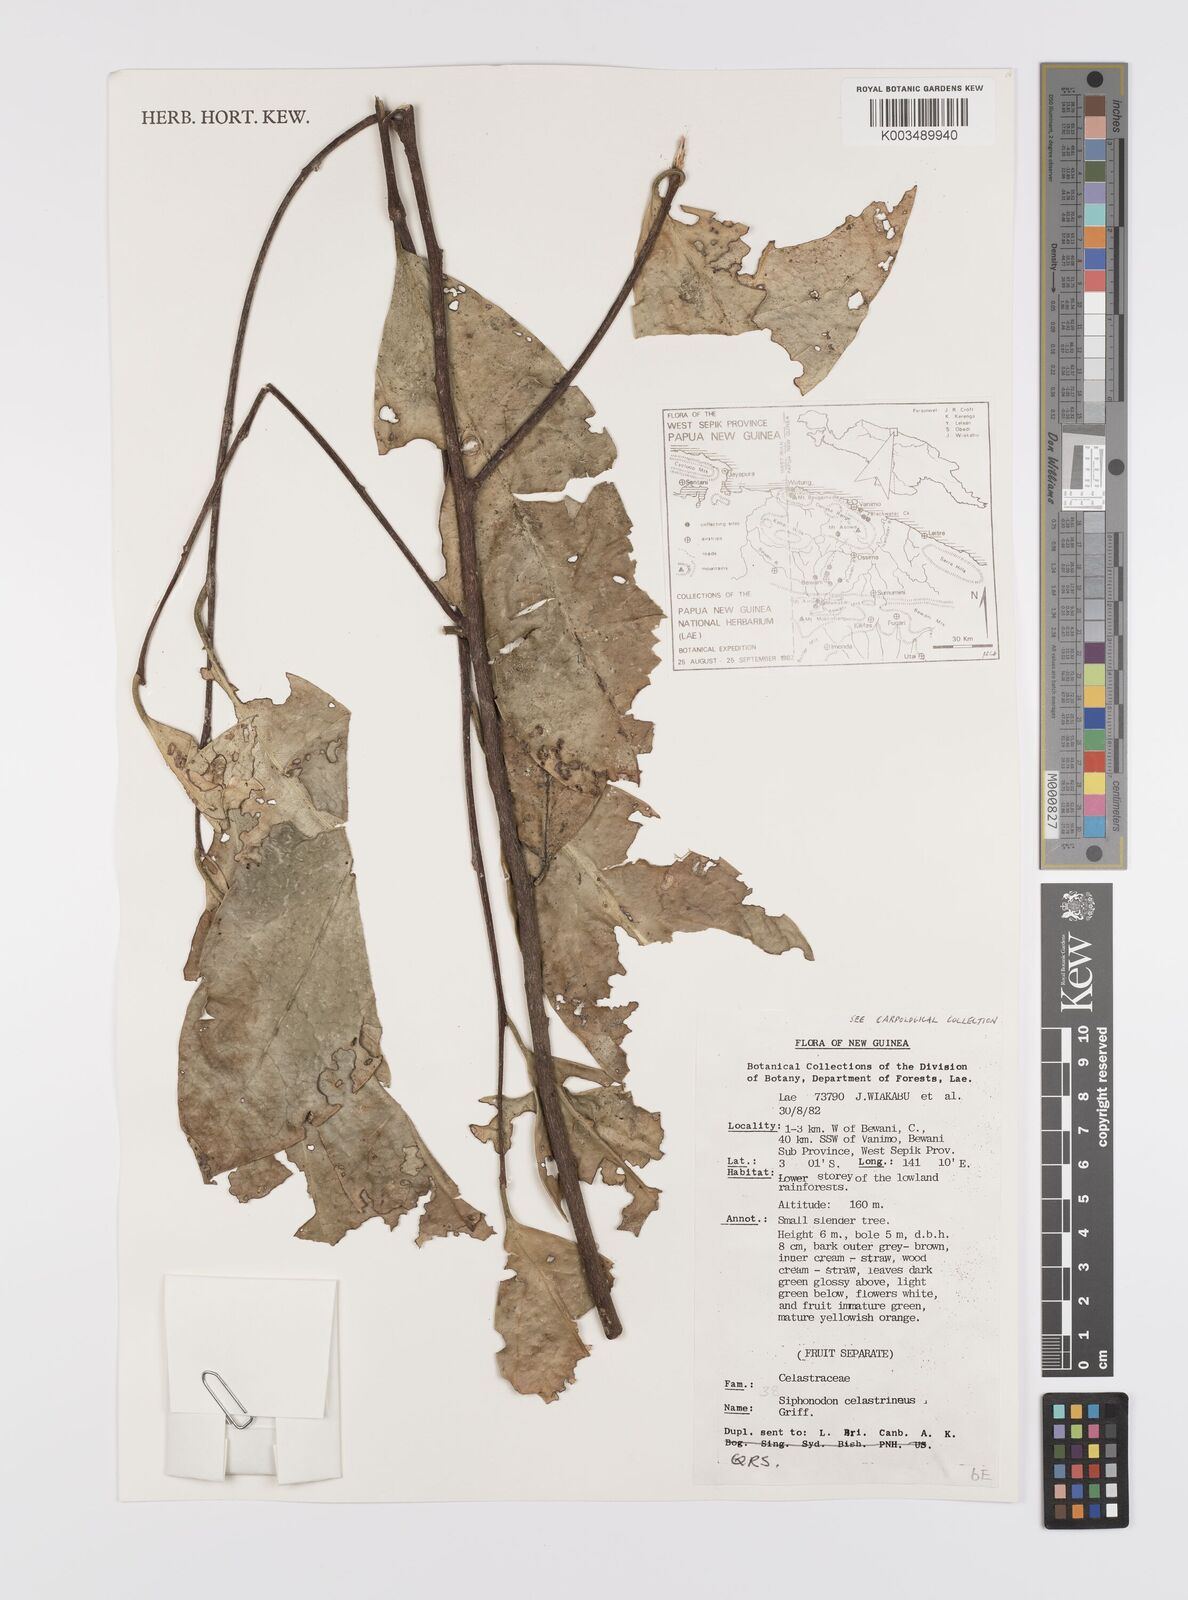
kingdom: Plantae
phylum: Tracheophyta
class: Magnoliopsida
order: Celastrales
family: Celastraceae
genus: Siphonodon
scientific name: Siphonodon celastrineus
